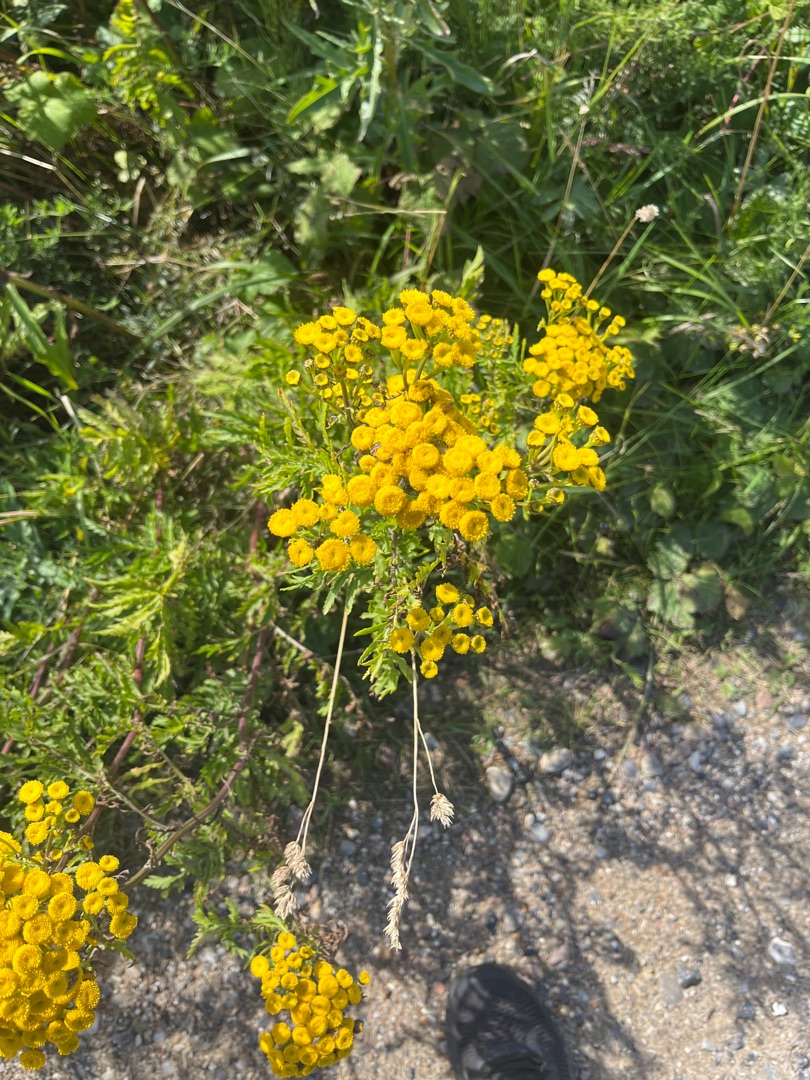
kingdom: Plantae
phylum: Tracheophyta
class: Magnoliopsida
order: Asterales
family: Asteraceae
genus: Tanacetum
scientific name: Tanacetum vulgare
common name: Rejnfan
